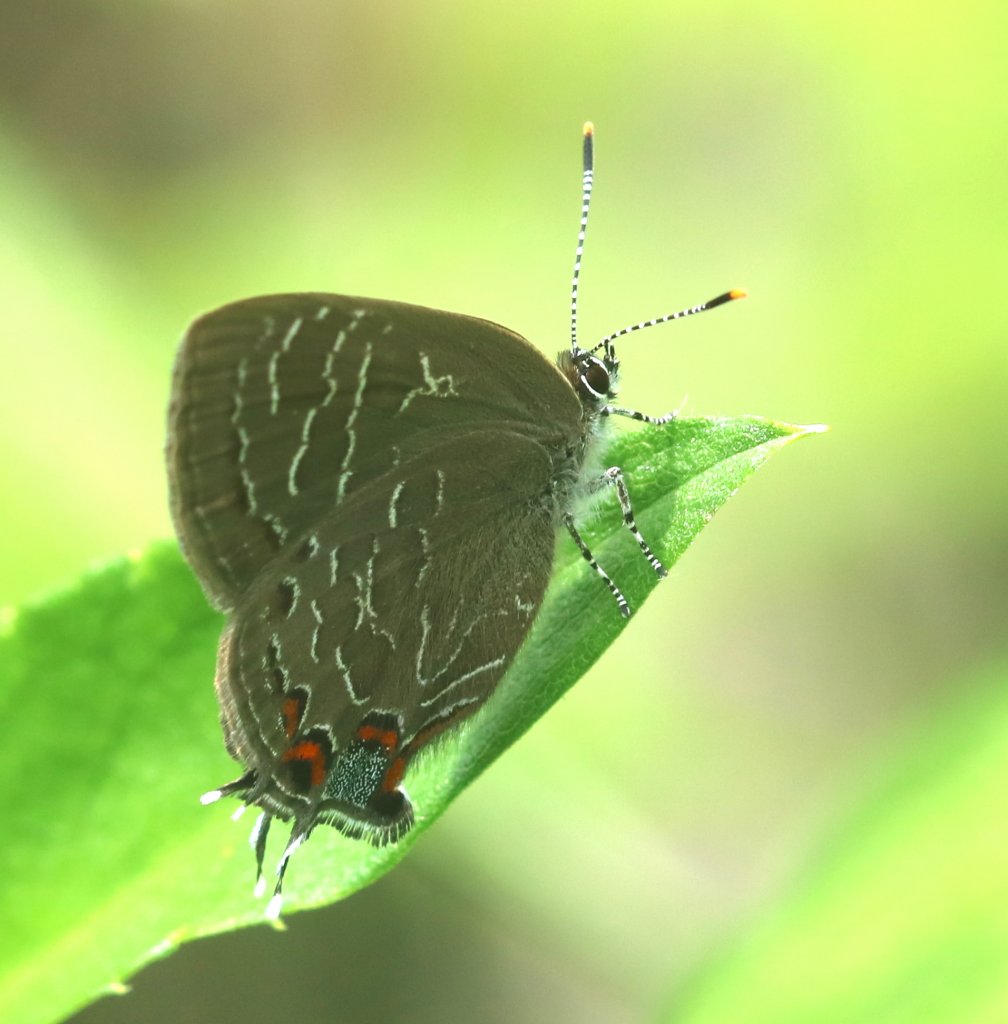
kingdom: Animalia
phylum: Arthropoda
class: Insecta
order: Lepidoptera
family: Lycaenidae
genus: Satyrium
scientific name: Satyrium liparops
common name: Striped Hairstreak
